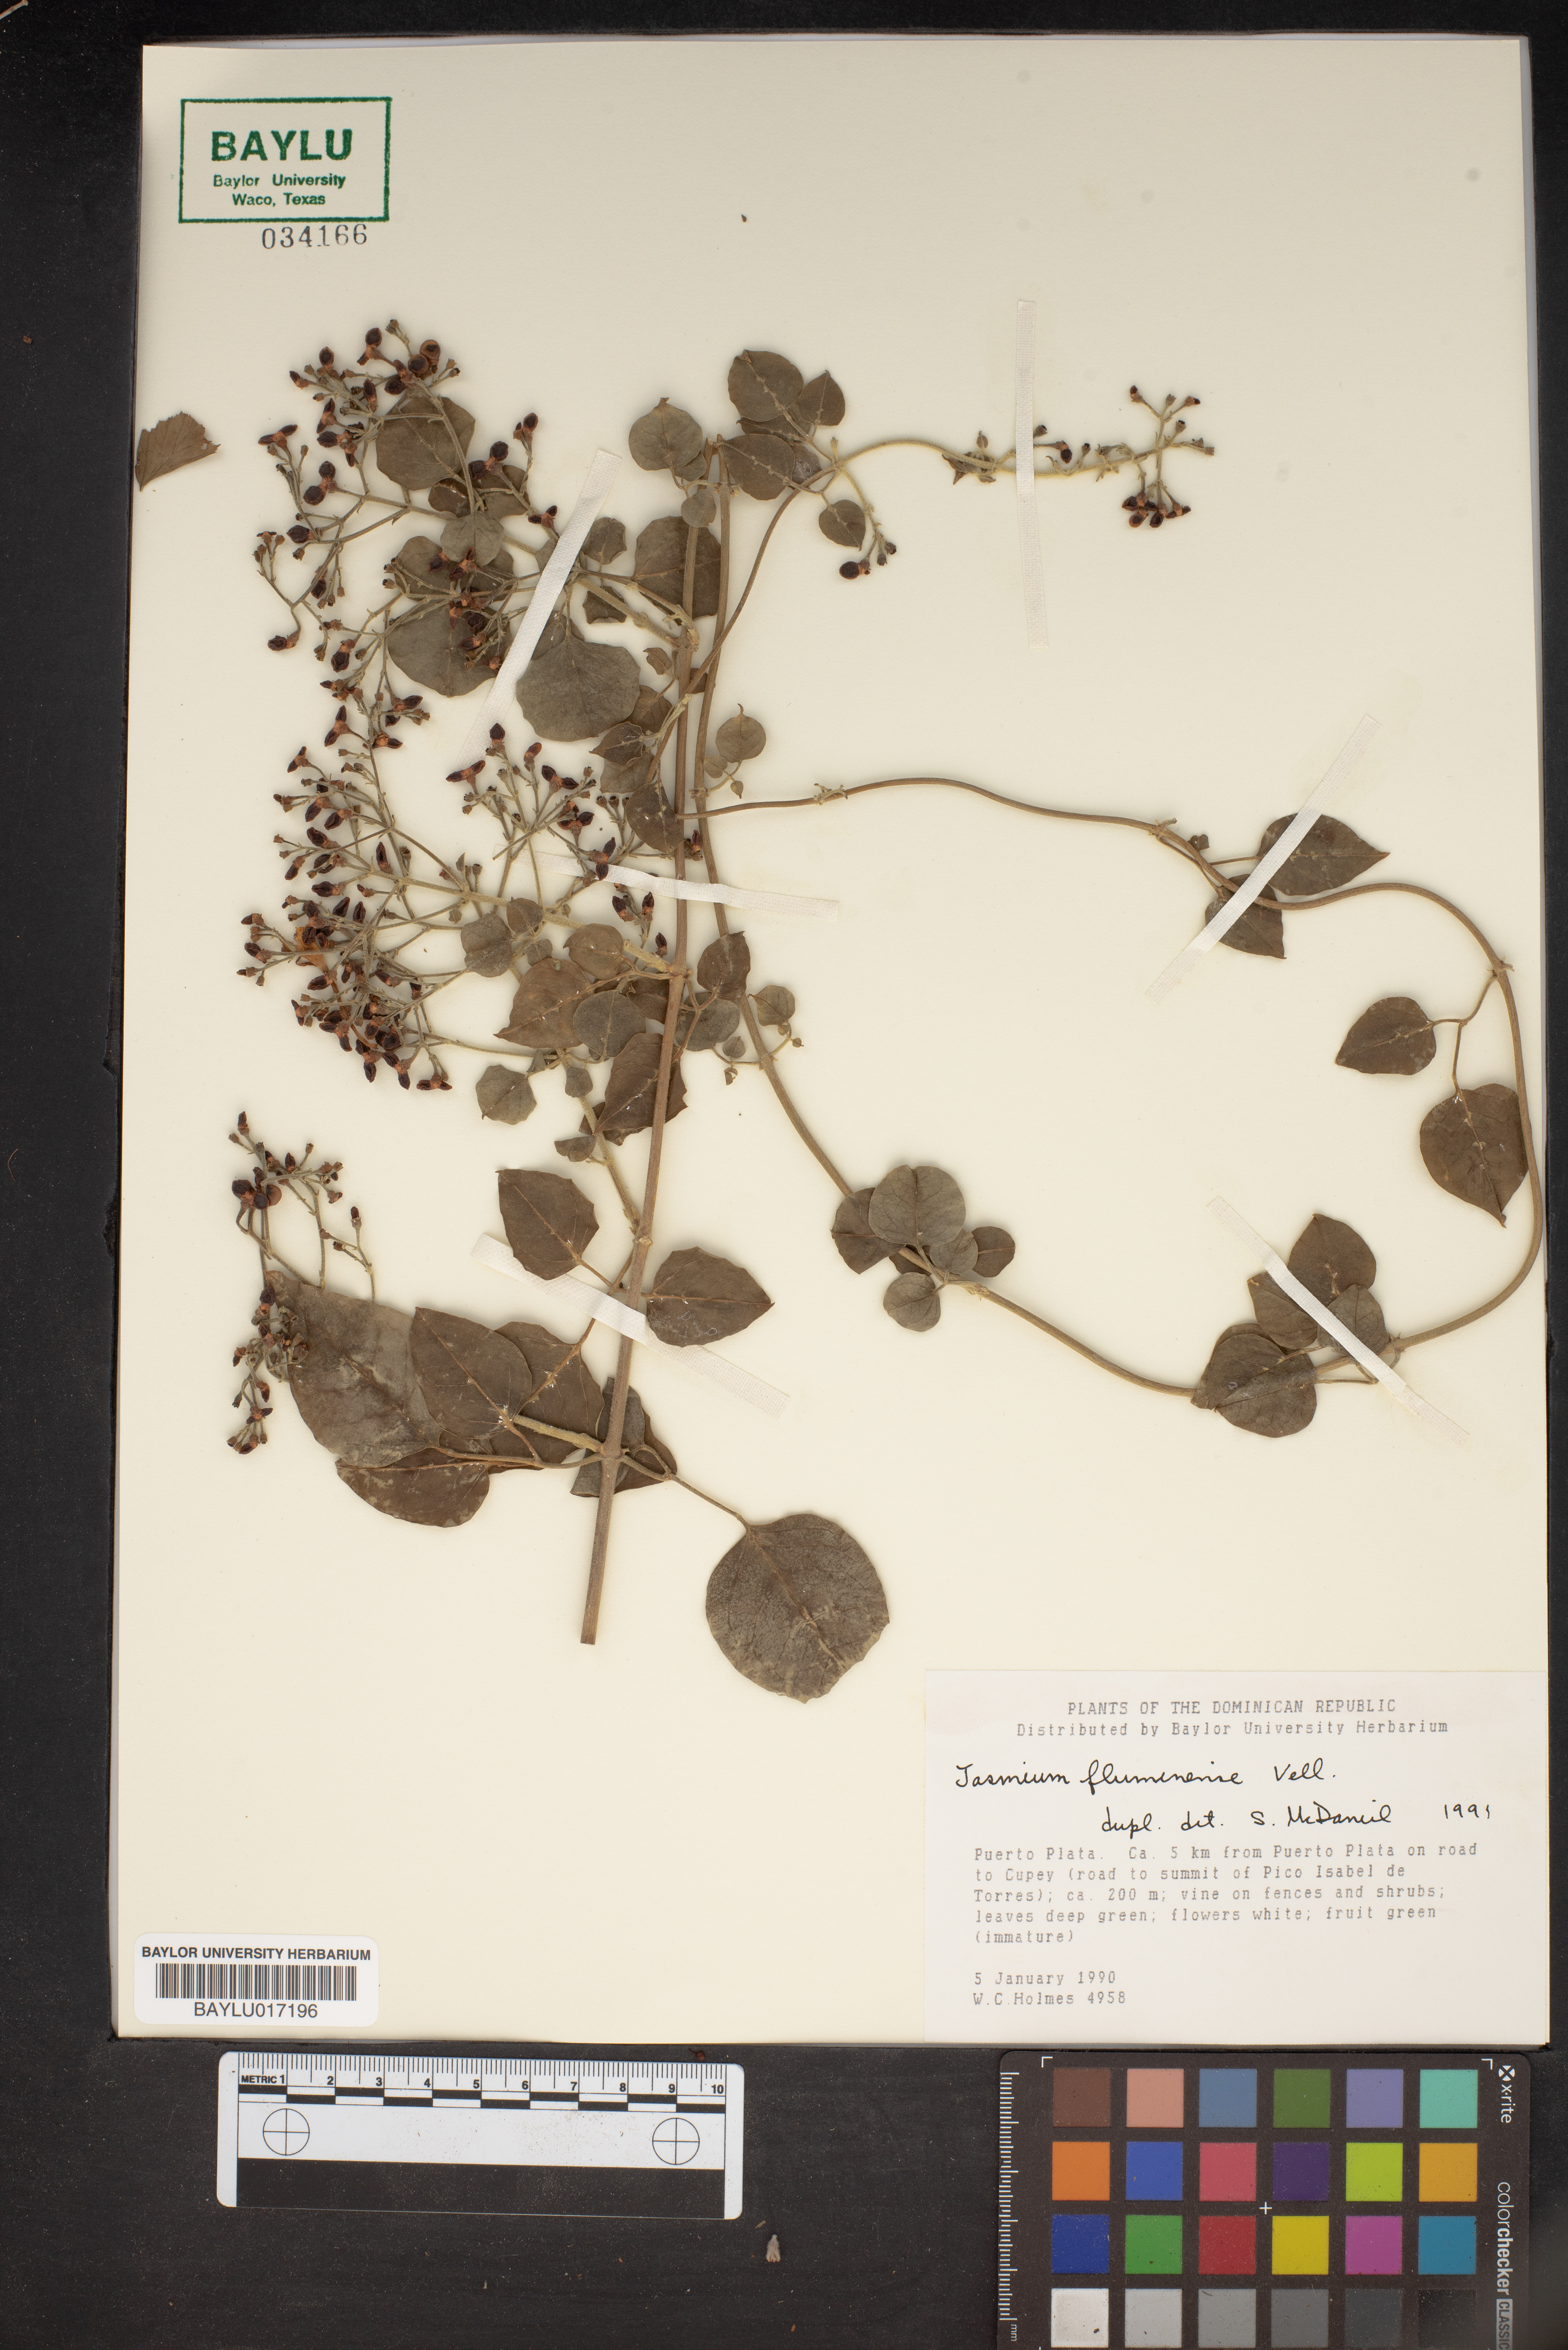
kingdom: Plantae
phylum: Tracheophyta
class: Magnoliopsida
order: Lamiales
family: Oleaceae
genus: Jasminum
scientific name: Jasminum fluminense
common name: Brazilian jasmine
